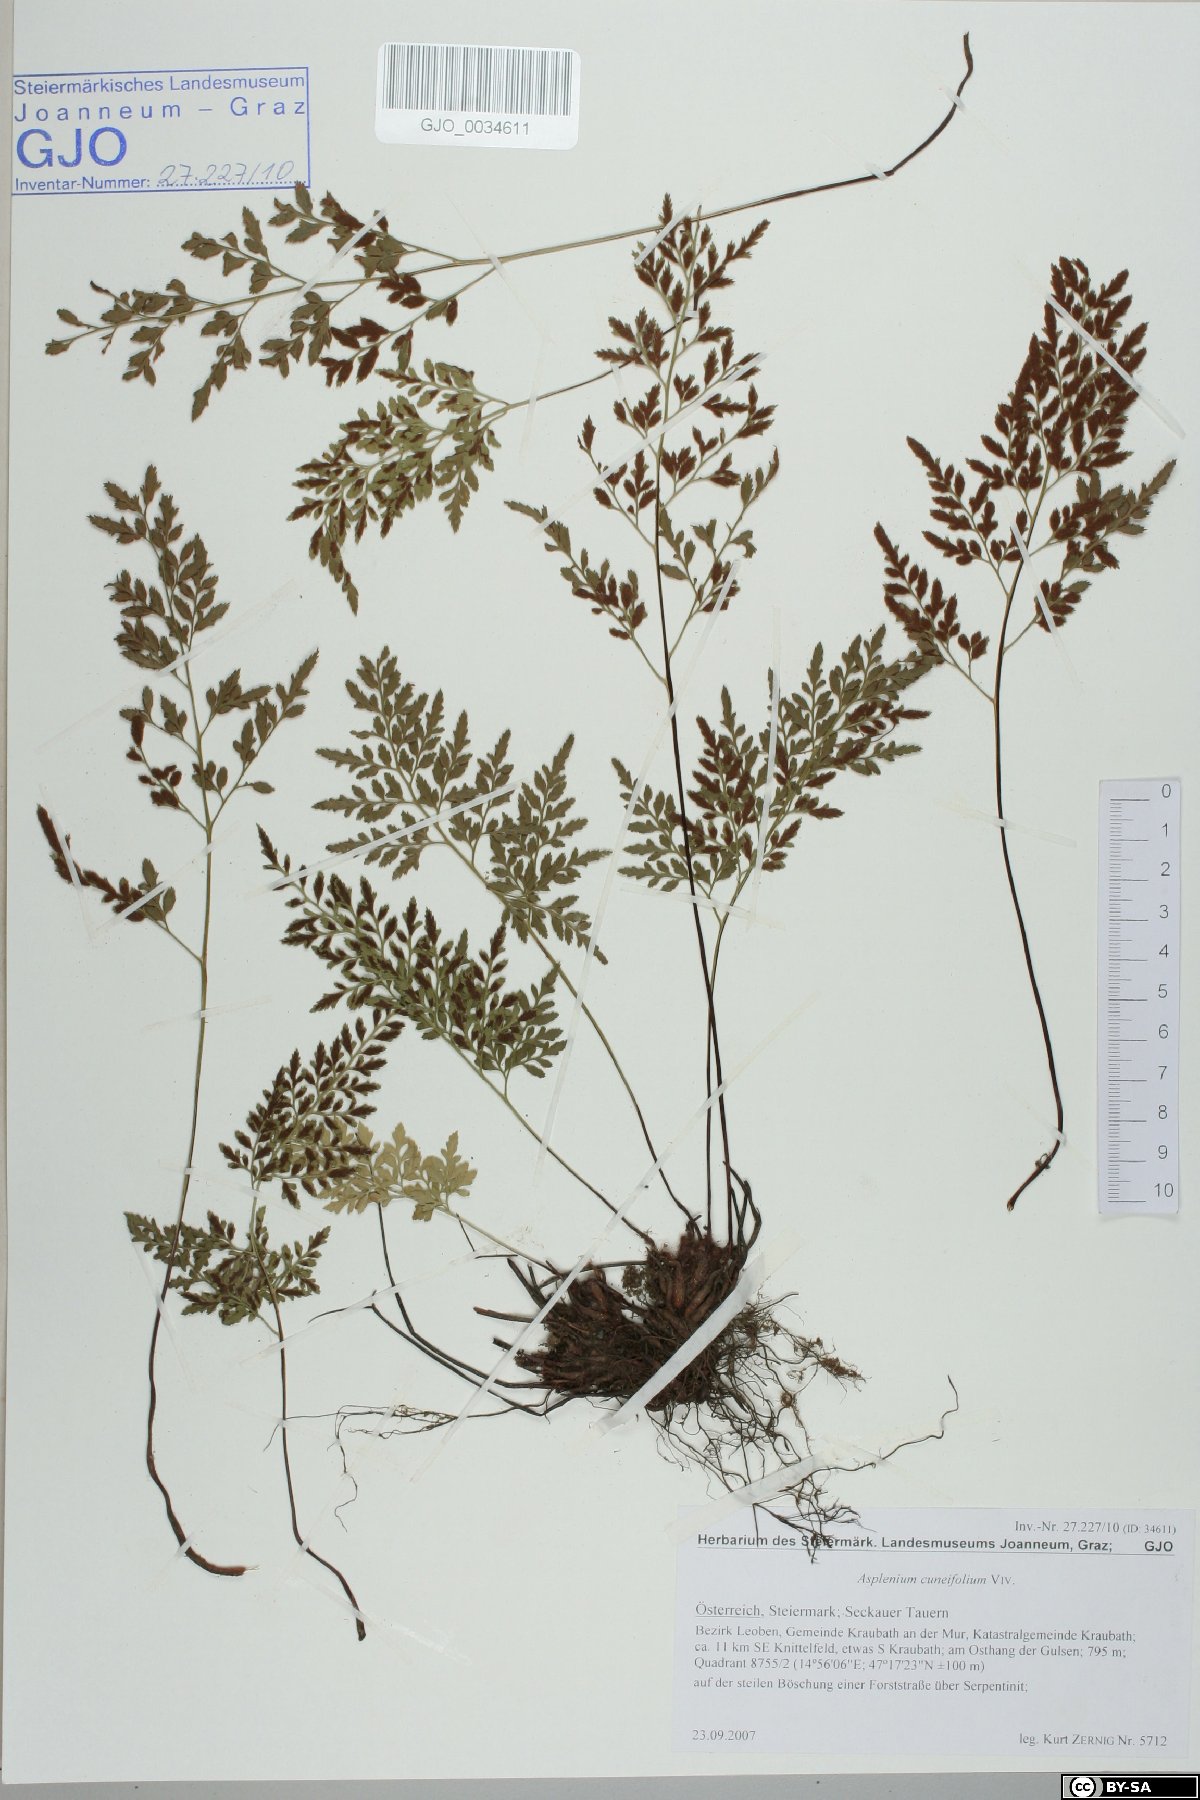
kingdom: Plantae
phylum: Tracheophyta
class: Polypodiopsida
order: Polypodiales
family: Aspleniaceae
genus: Asplenium
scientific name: Asplenium cuneifolium
